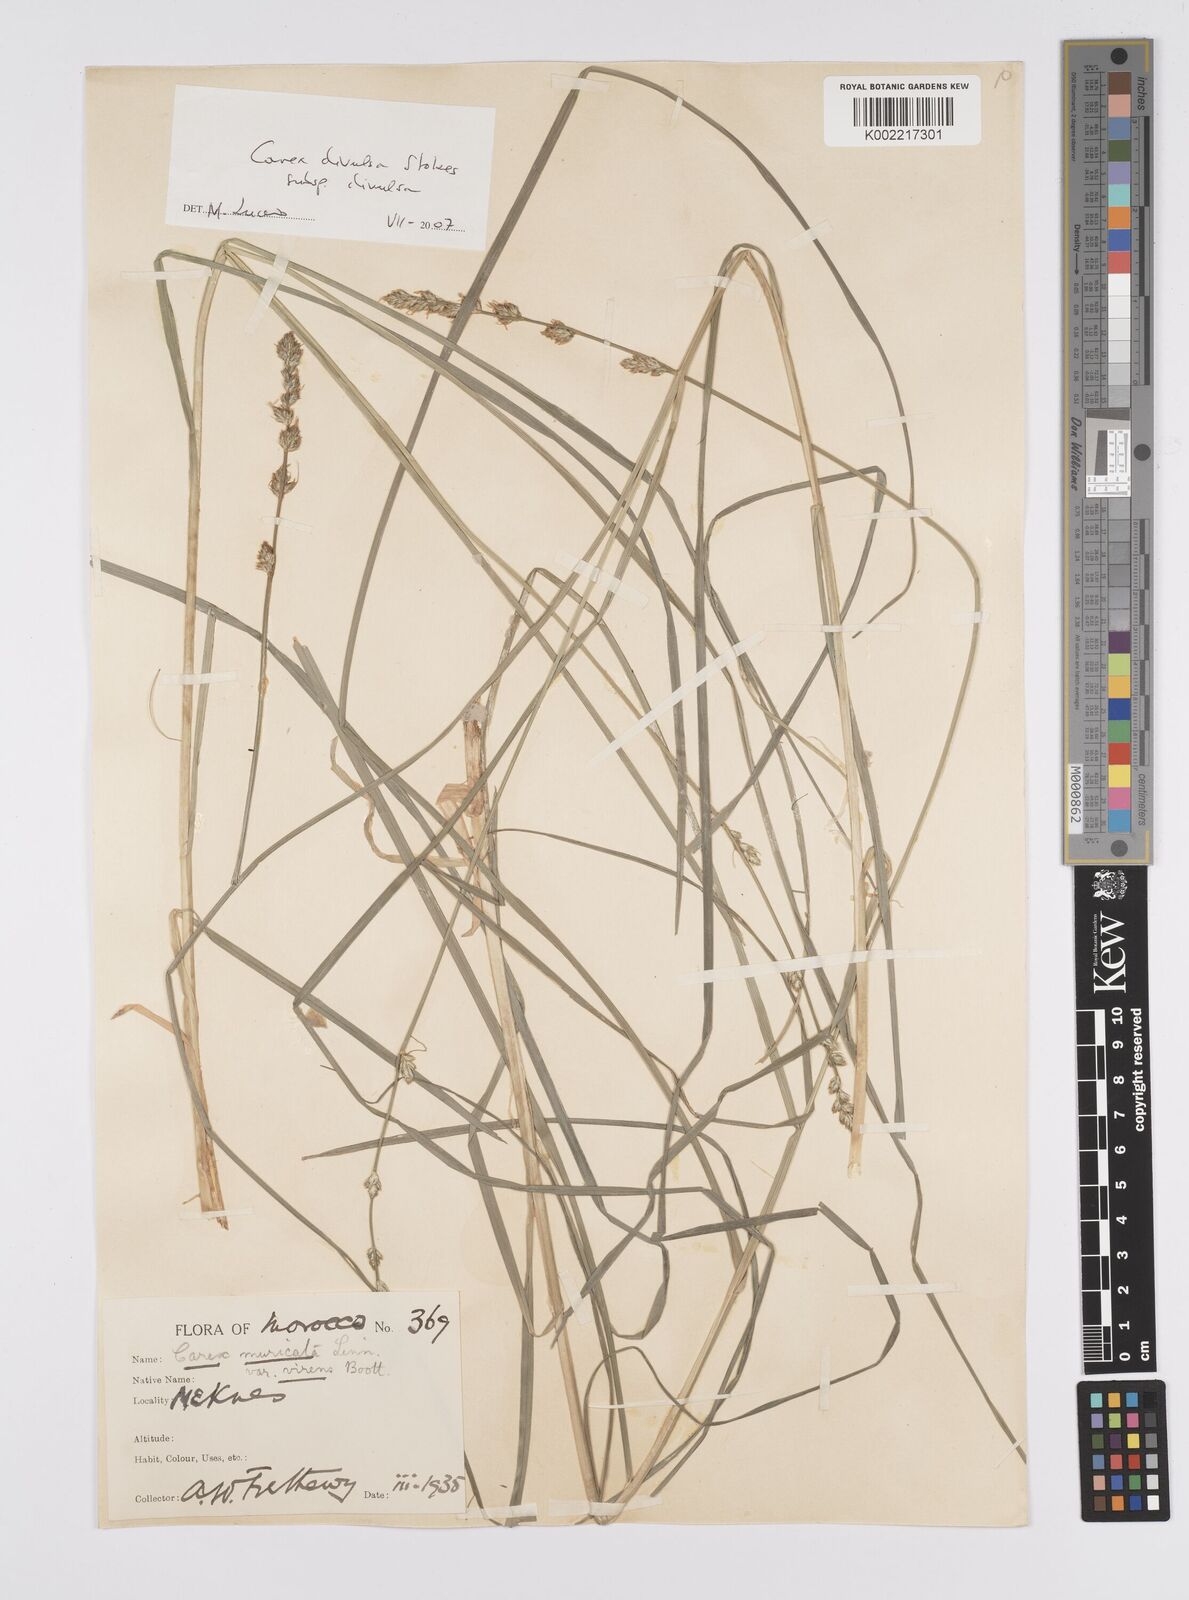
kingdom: Plantae
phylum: Tracheophyta
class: Liliopsida
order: Poales
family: Cyperaceae
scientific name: Cyperaceae
